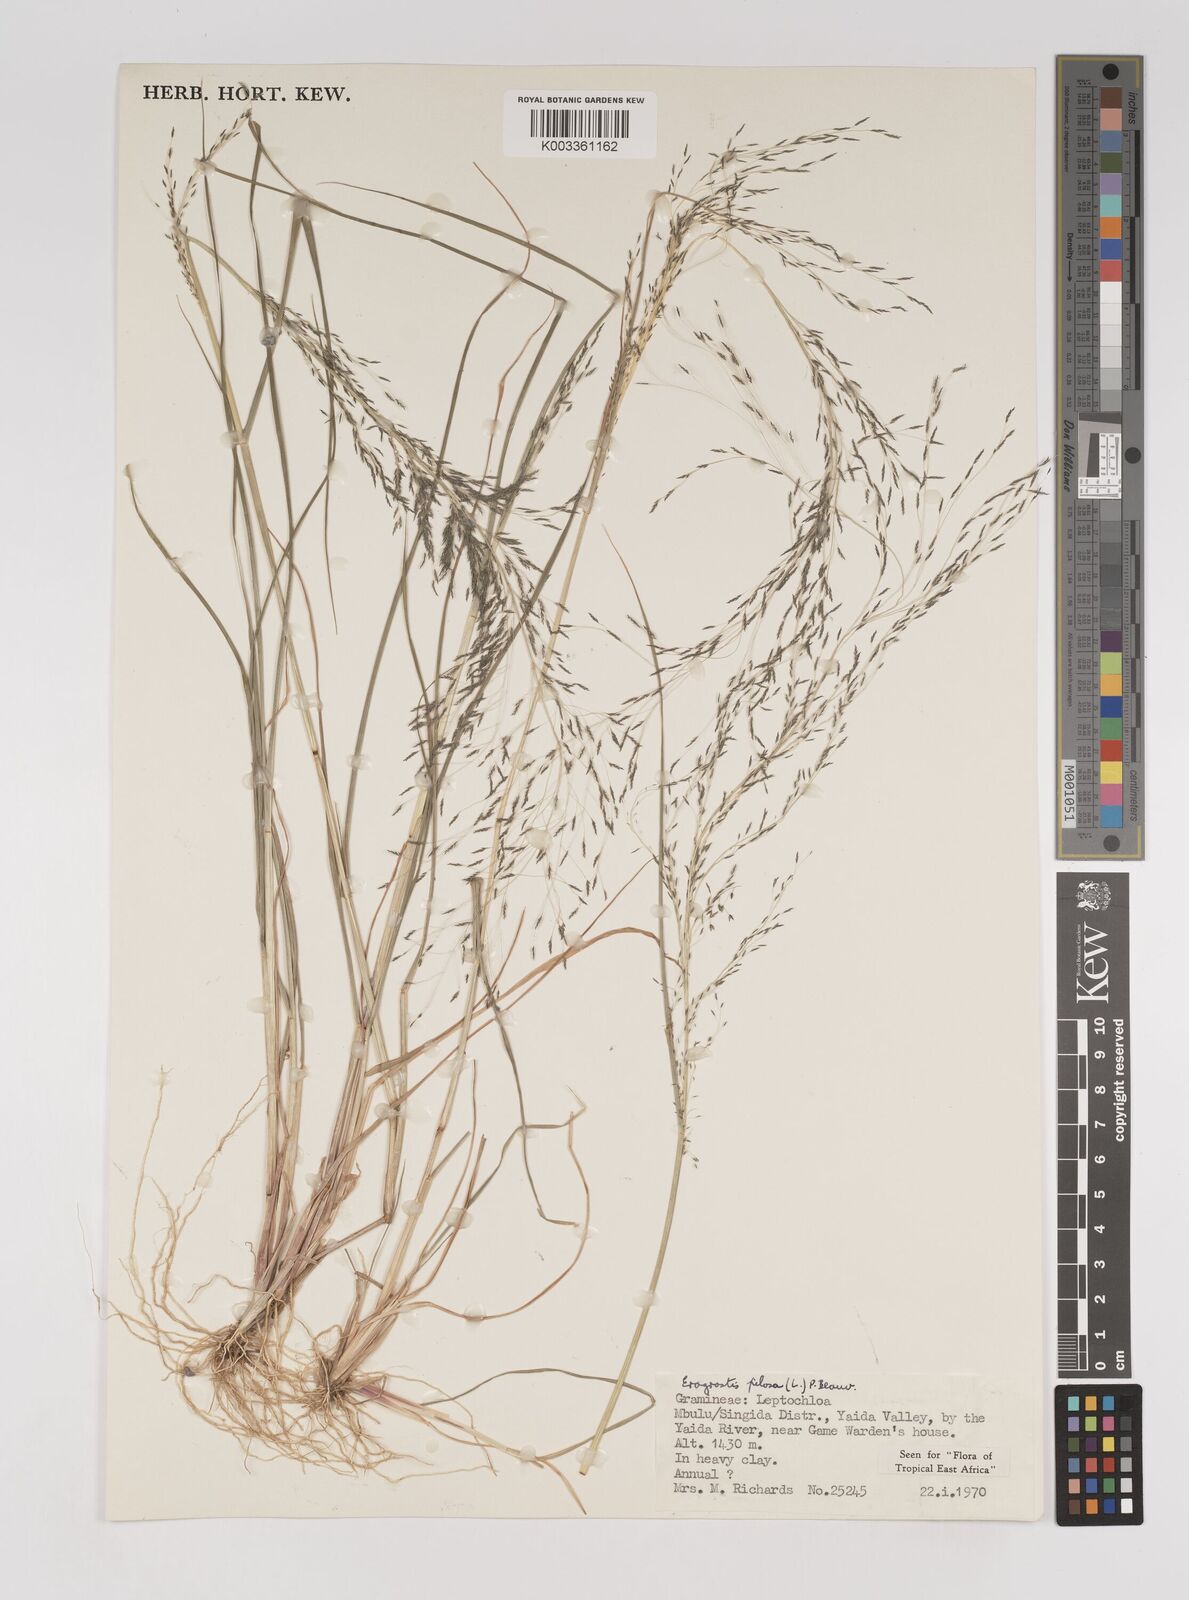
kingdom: Plantae
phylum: Tracheophyta
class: Liliopsida
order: Poales
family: Poaceae
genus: Eragrostis
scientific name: Eragrostis pilosa
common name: Indian lovegrass
